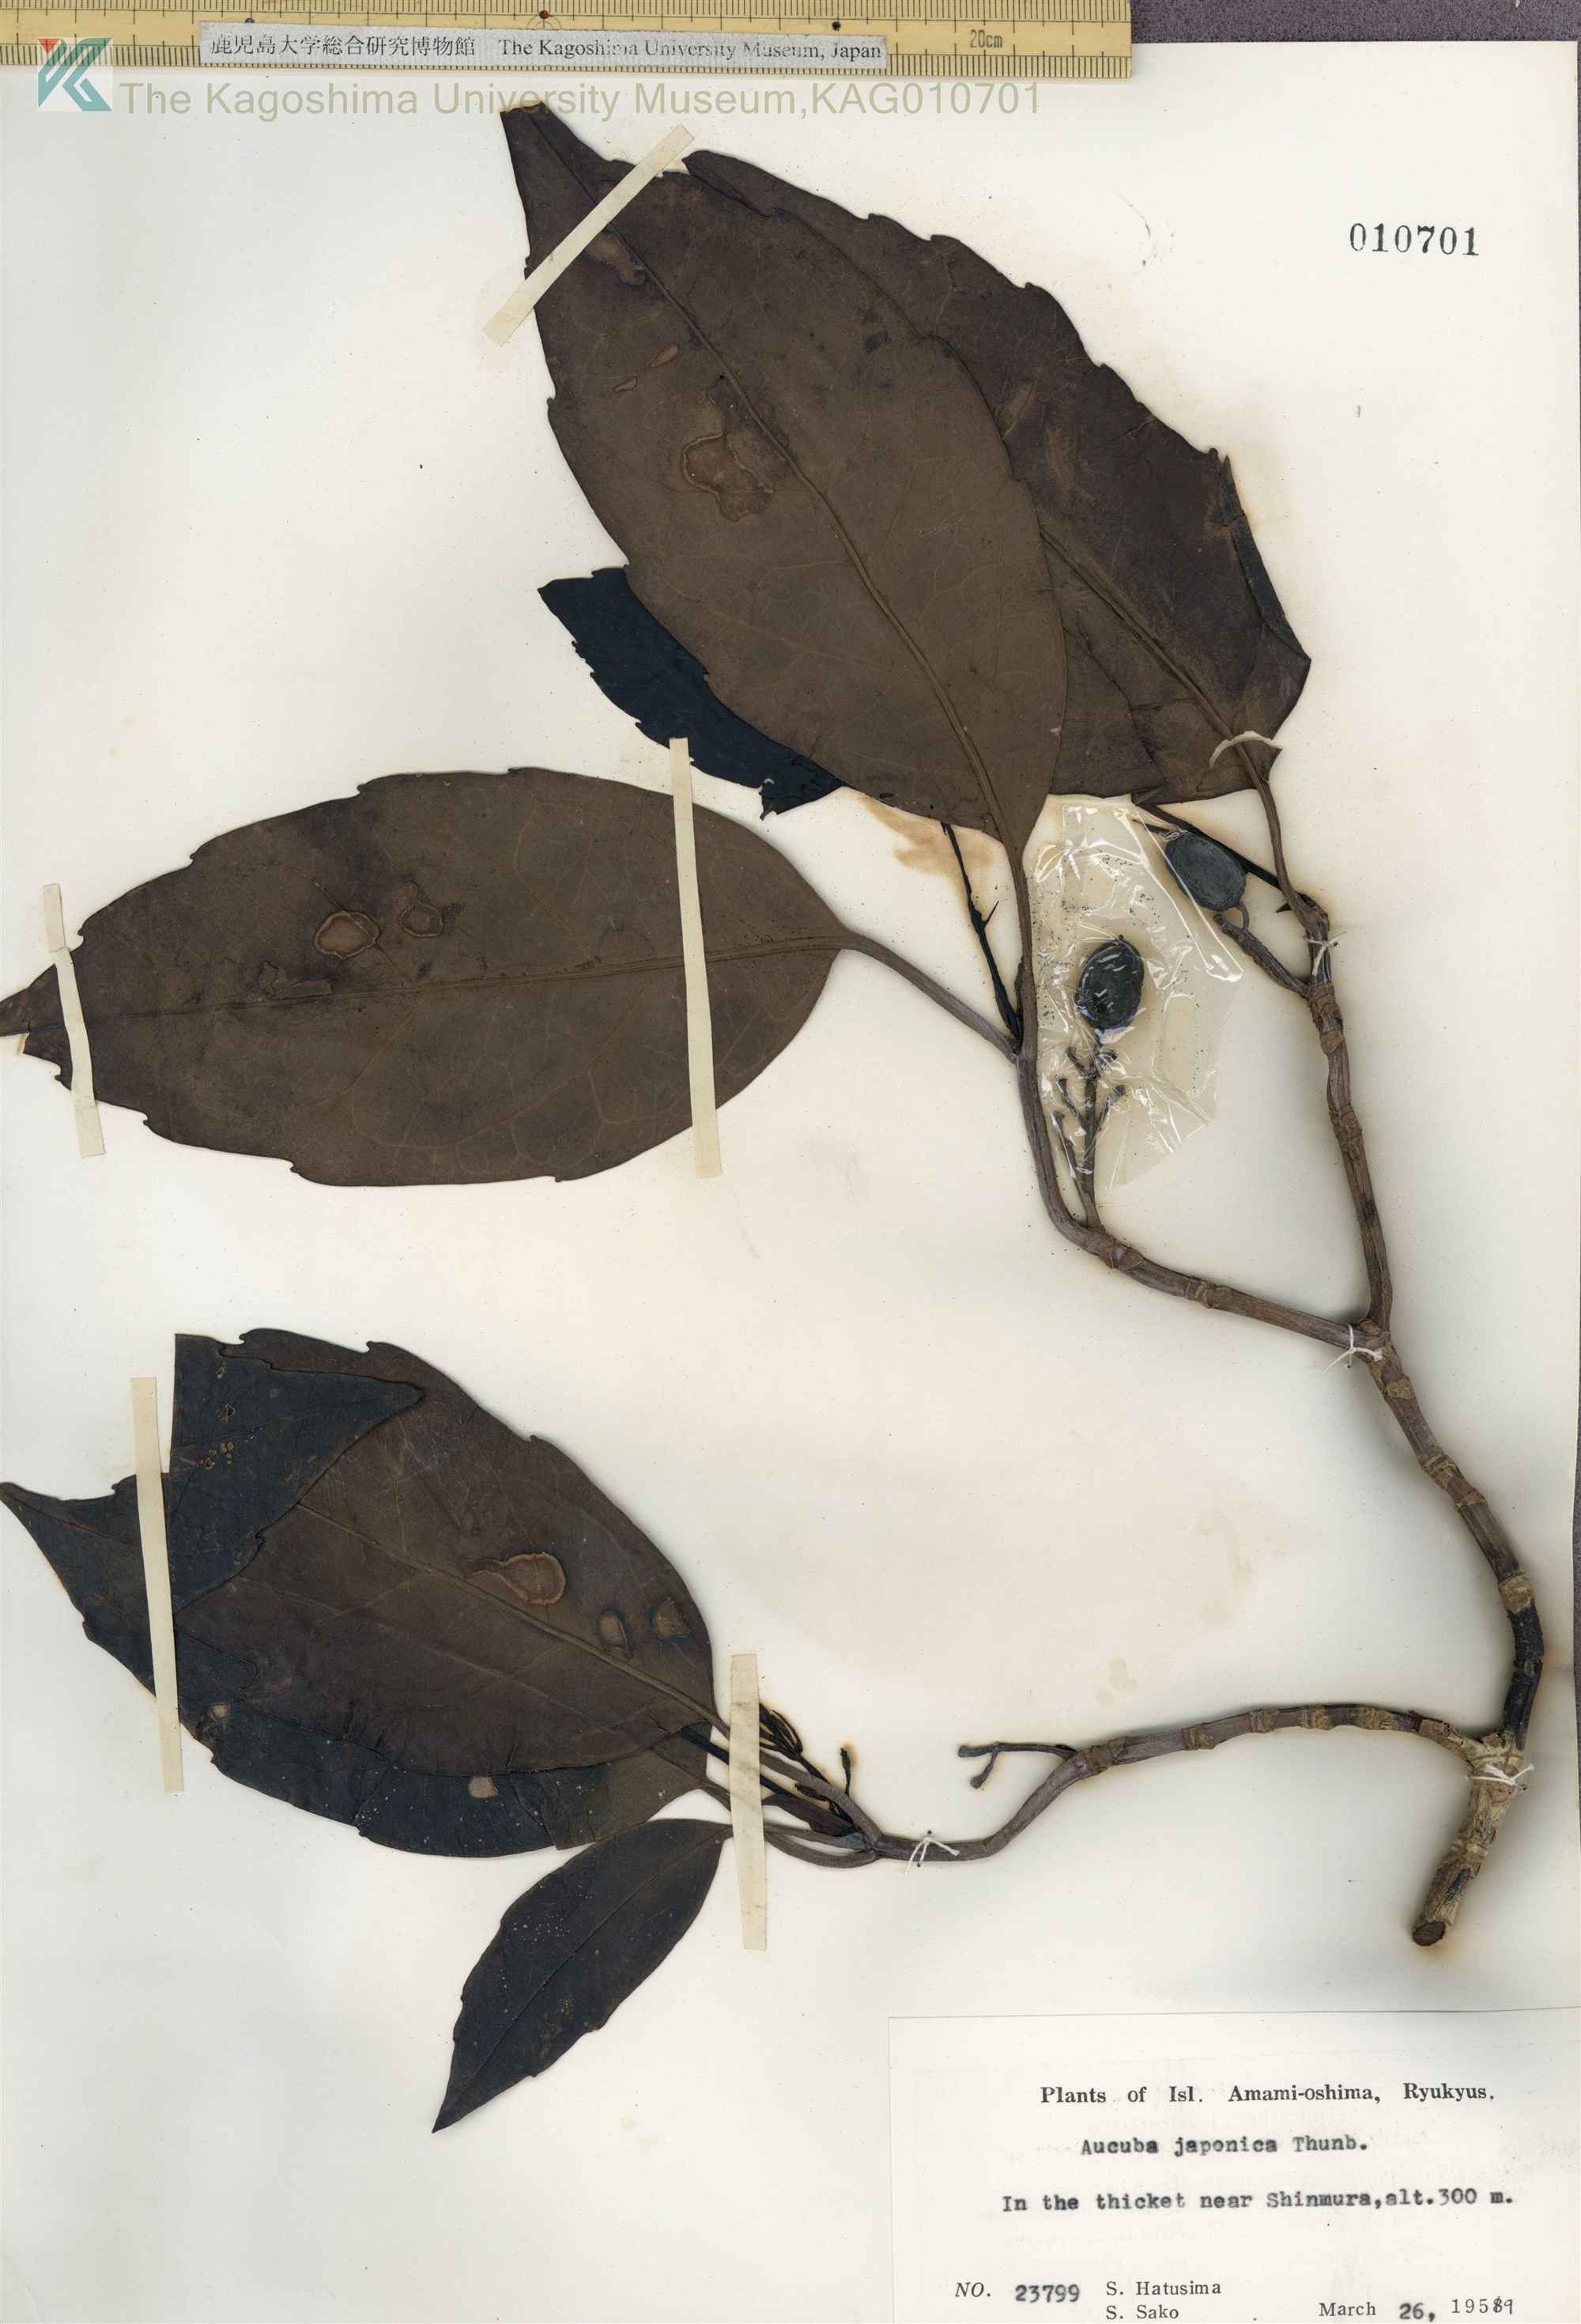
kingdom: Plantae
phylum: Tracheophyta
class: Magnoliopsida
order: Garryales
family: Garryaceae
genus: Aucuba
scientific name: Aucuba japonica
